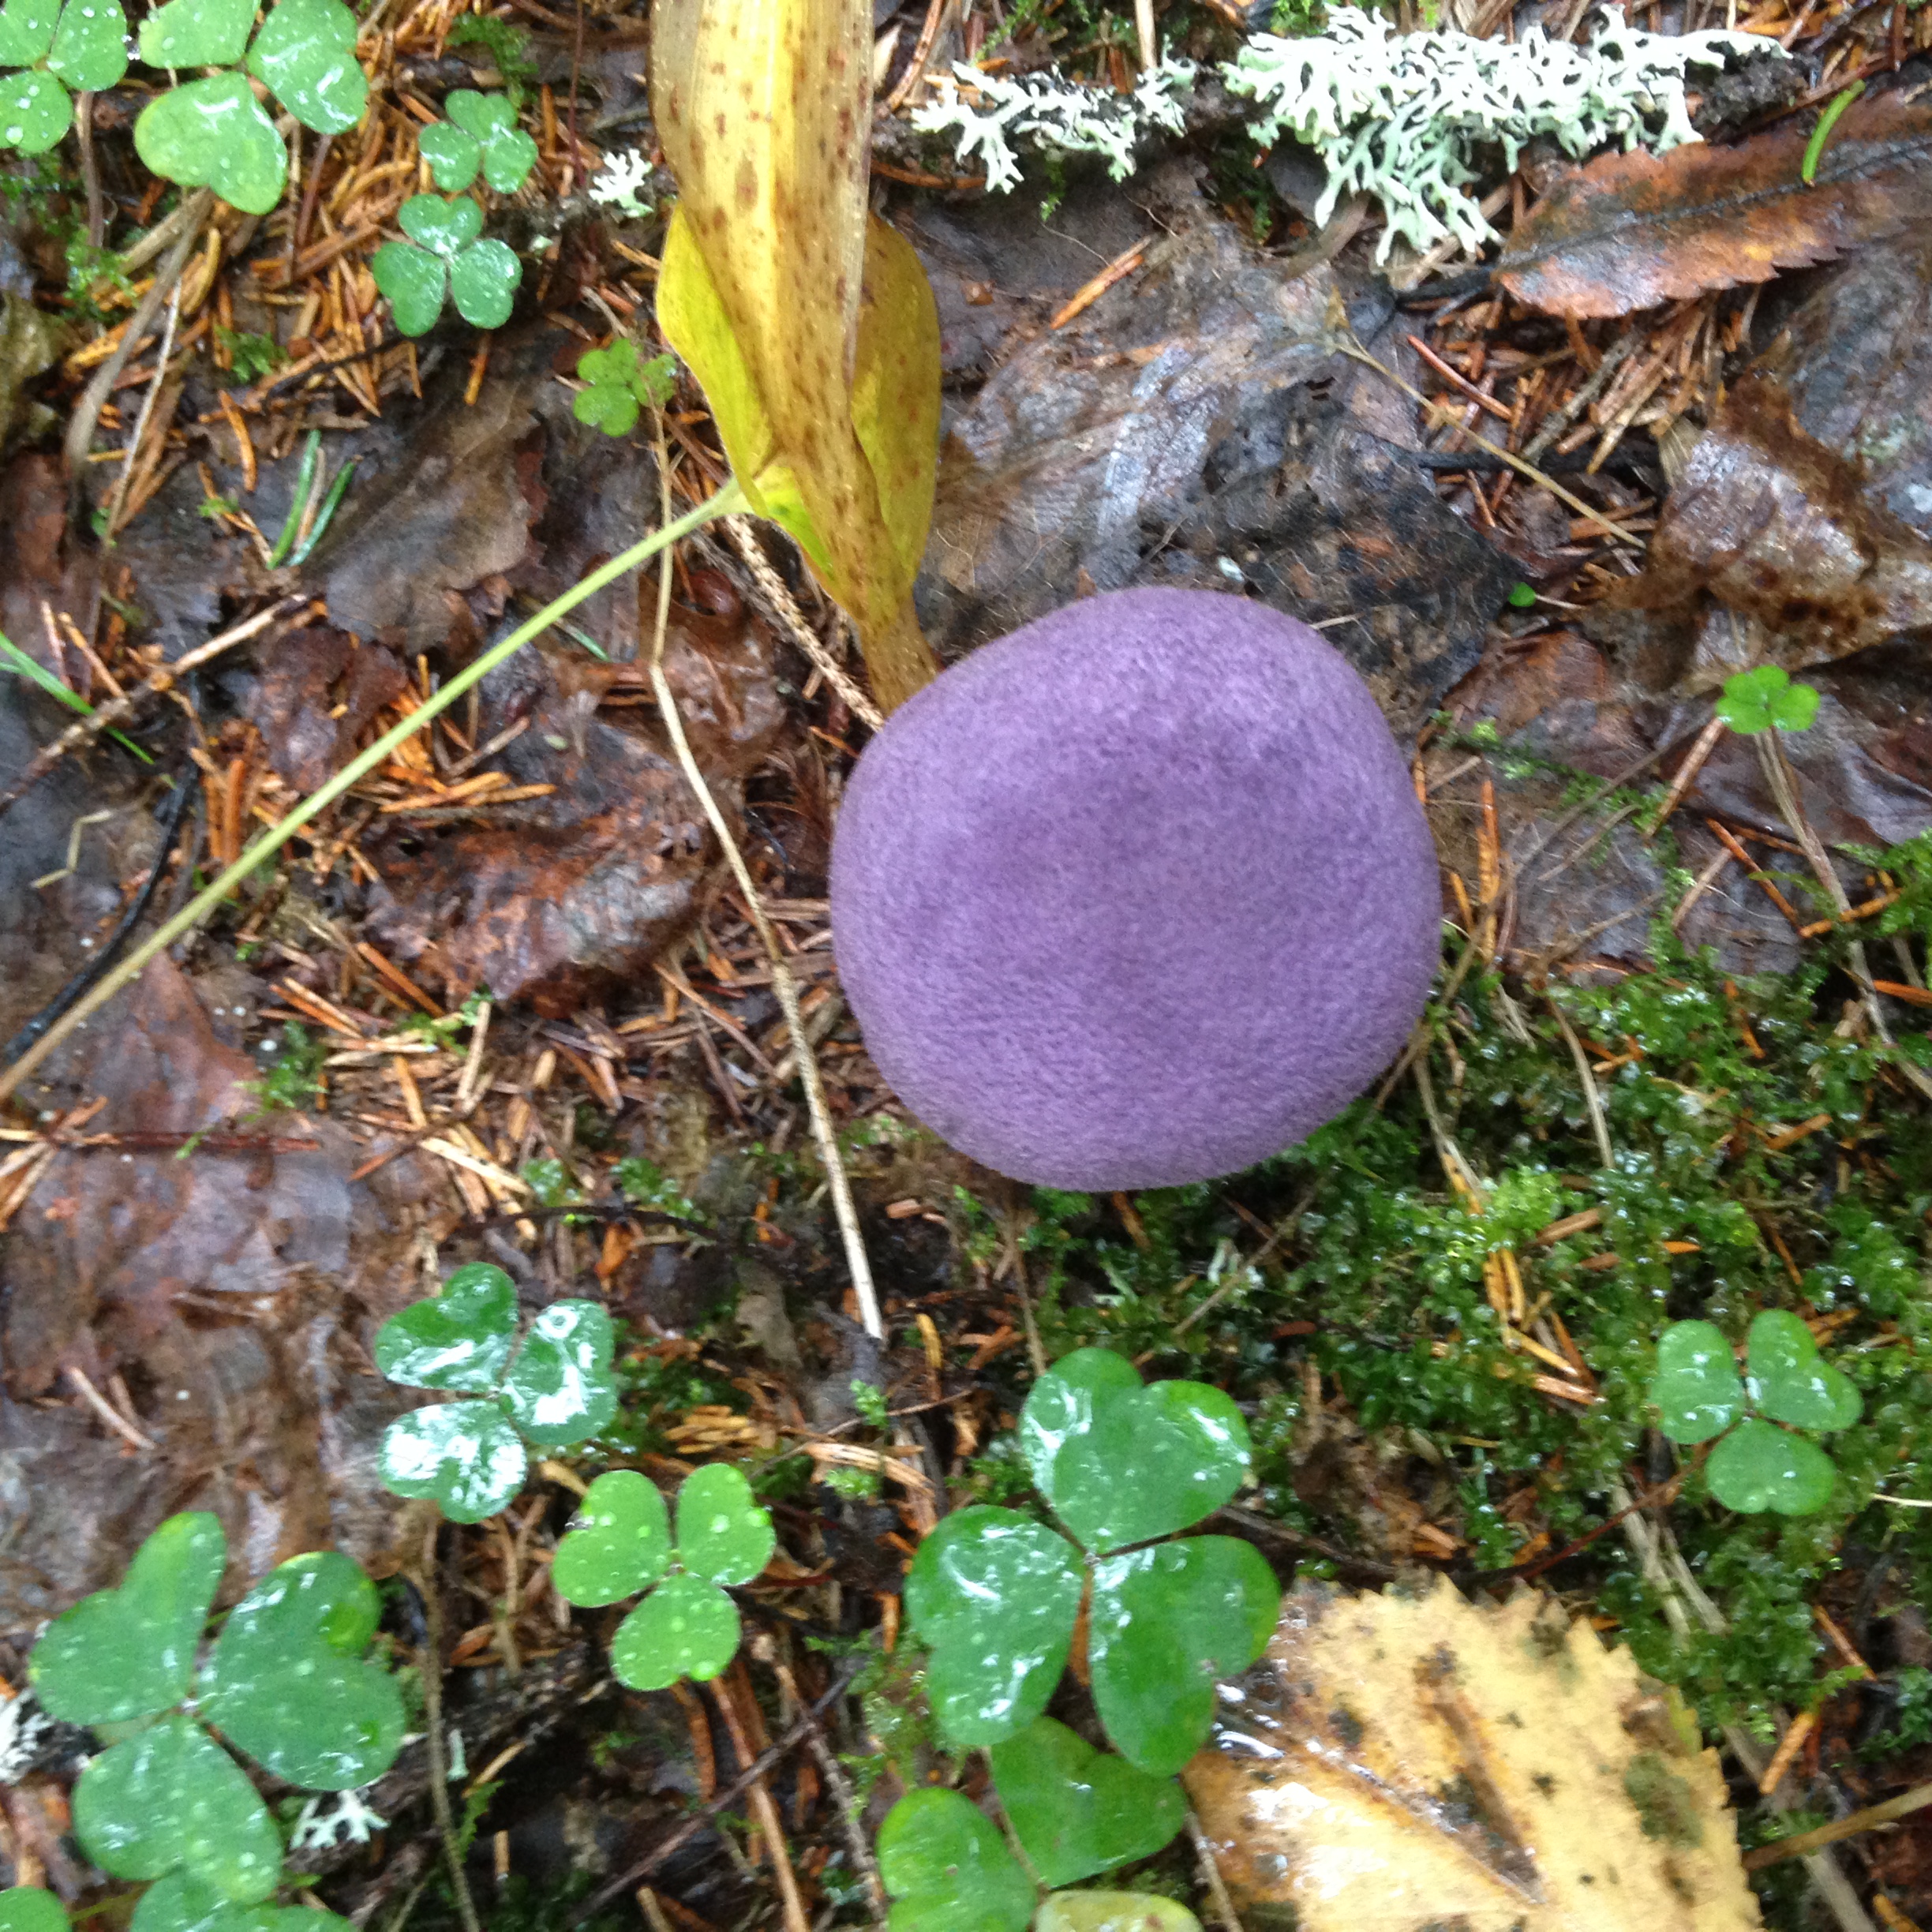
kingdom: Fungi
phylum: Basidiomycota
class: Agaricomycetes
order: Agaricales
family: Cortinariaceae
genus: Cortinarius
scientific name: Cortinarius violaceus
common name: Violet webcap
